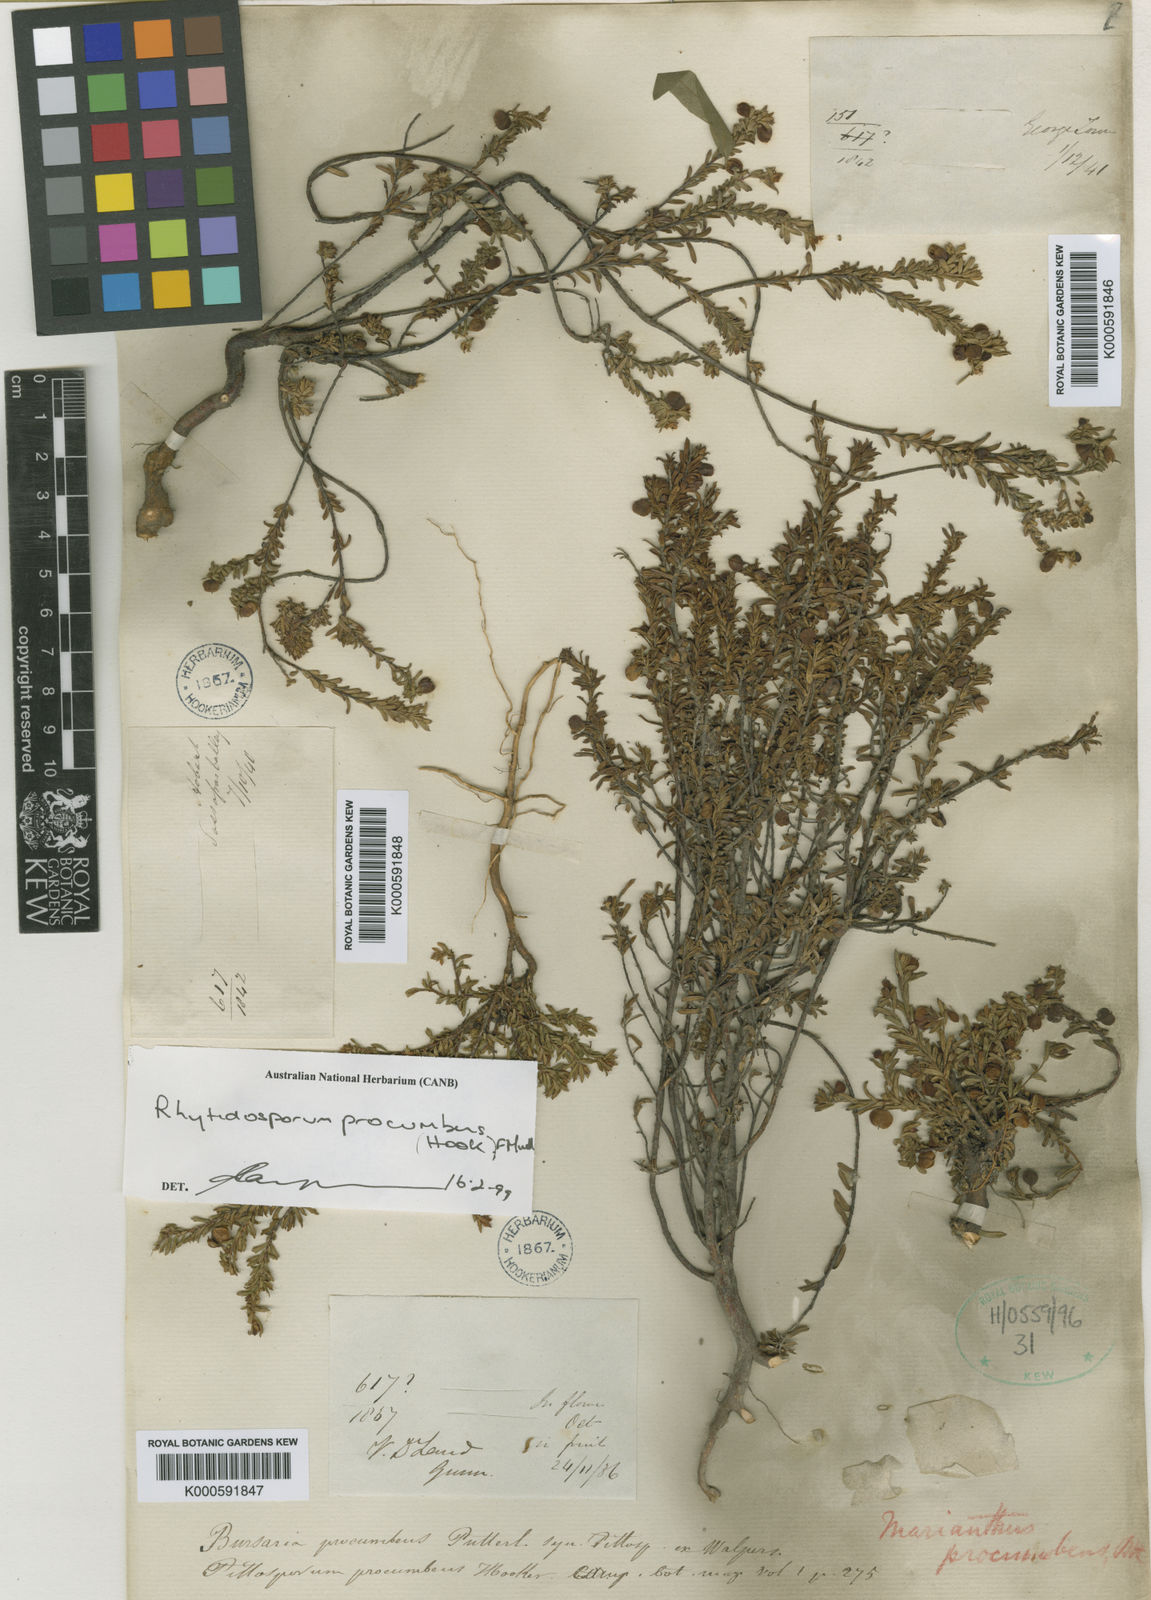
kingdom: Plantae
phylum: Tracheophyta
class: Magnoliopsida
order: Apiales
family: Pittosporaceae
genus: Marianthus
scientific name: Marianthus
